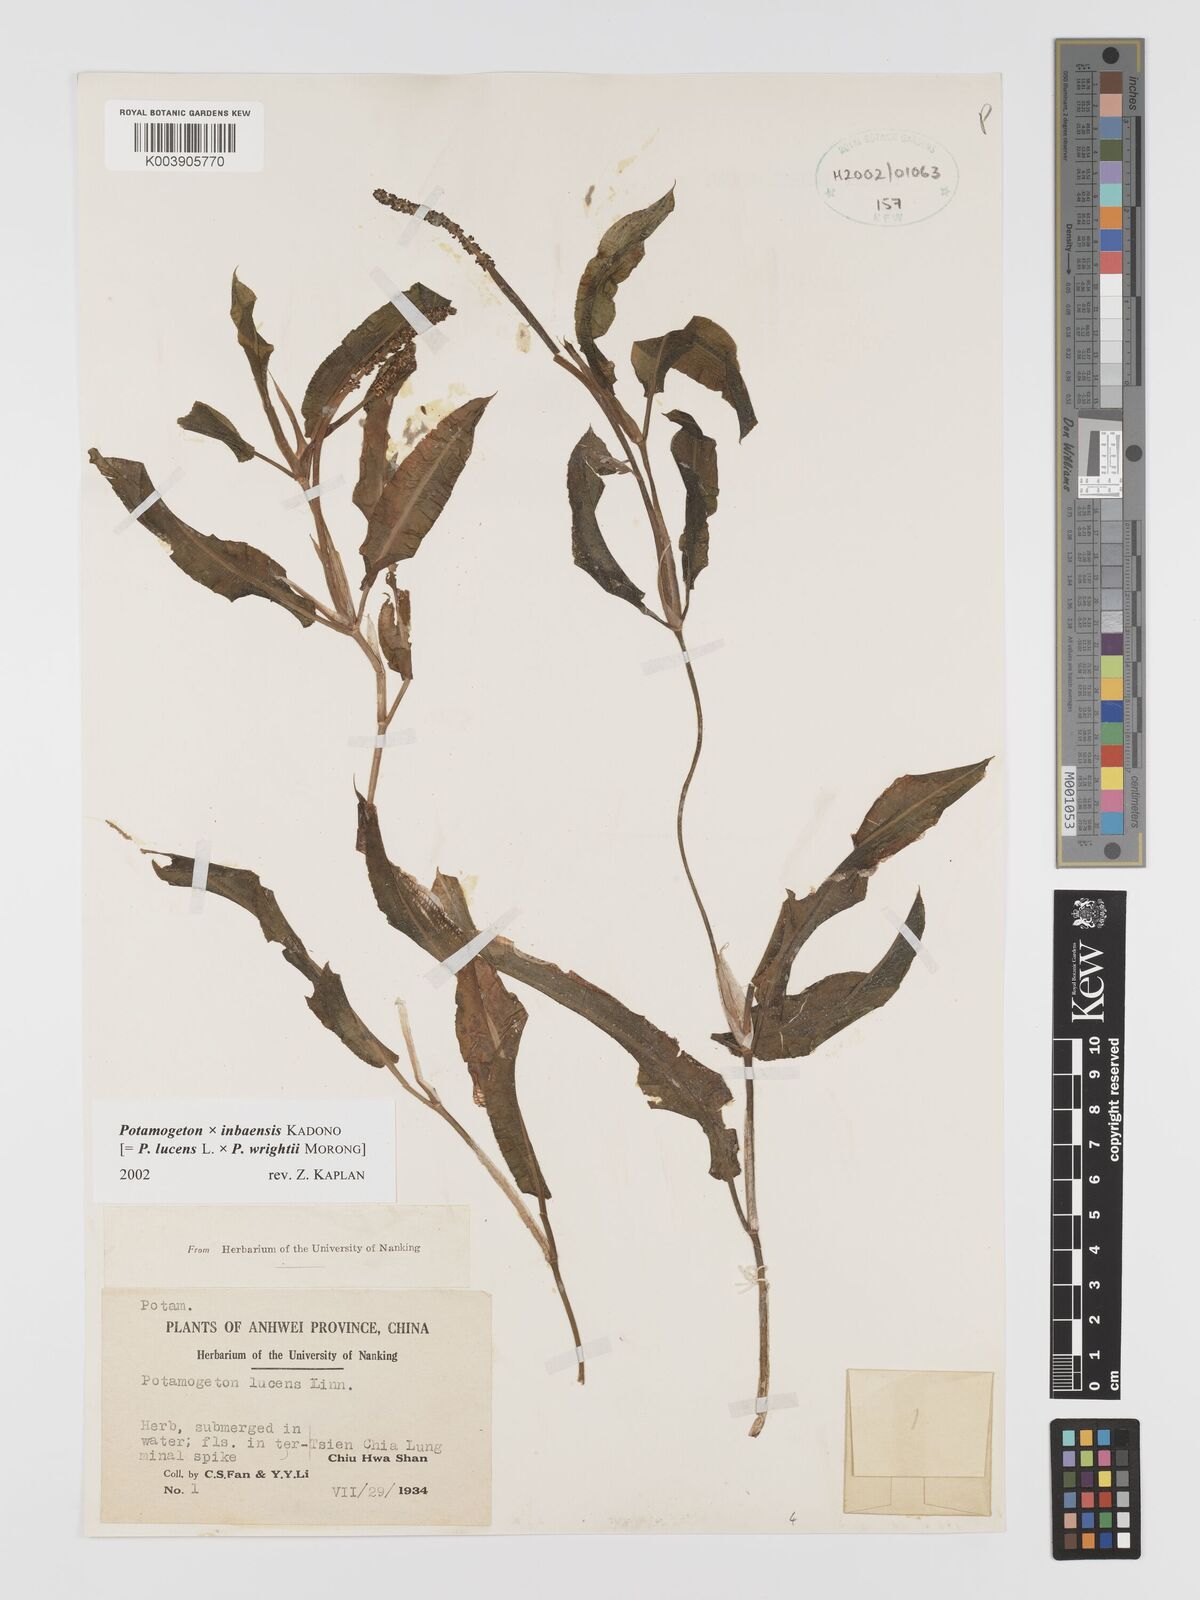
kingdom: Plantae
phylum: Tracheophyta
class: Liliopsida
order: Alismatales
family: Potamogetonaceae
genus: Potamogeton
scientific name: Potamogeton inbaensis
